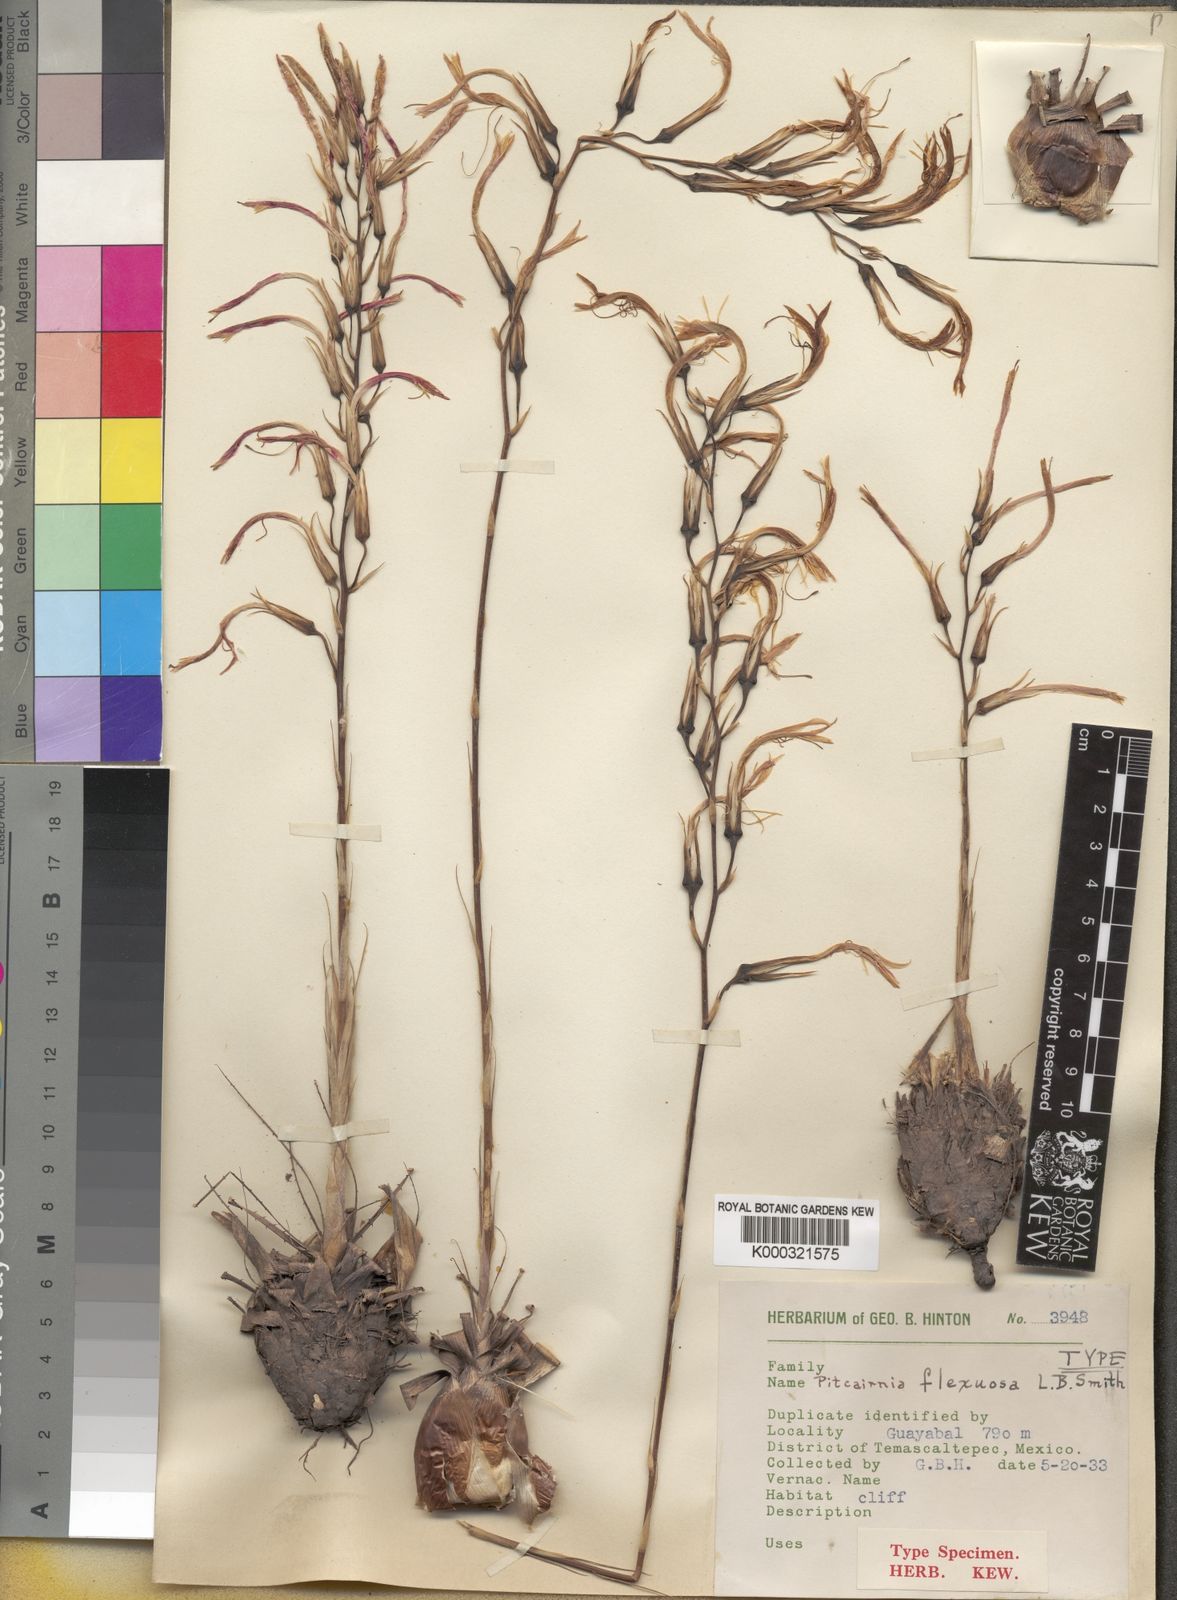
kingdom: Plantae
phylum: Tracheophyta
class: Liliopsida
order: Poales
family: Bromeliaceae
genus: Pitcairnia
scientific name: Pitcairnia flexuosa
